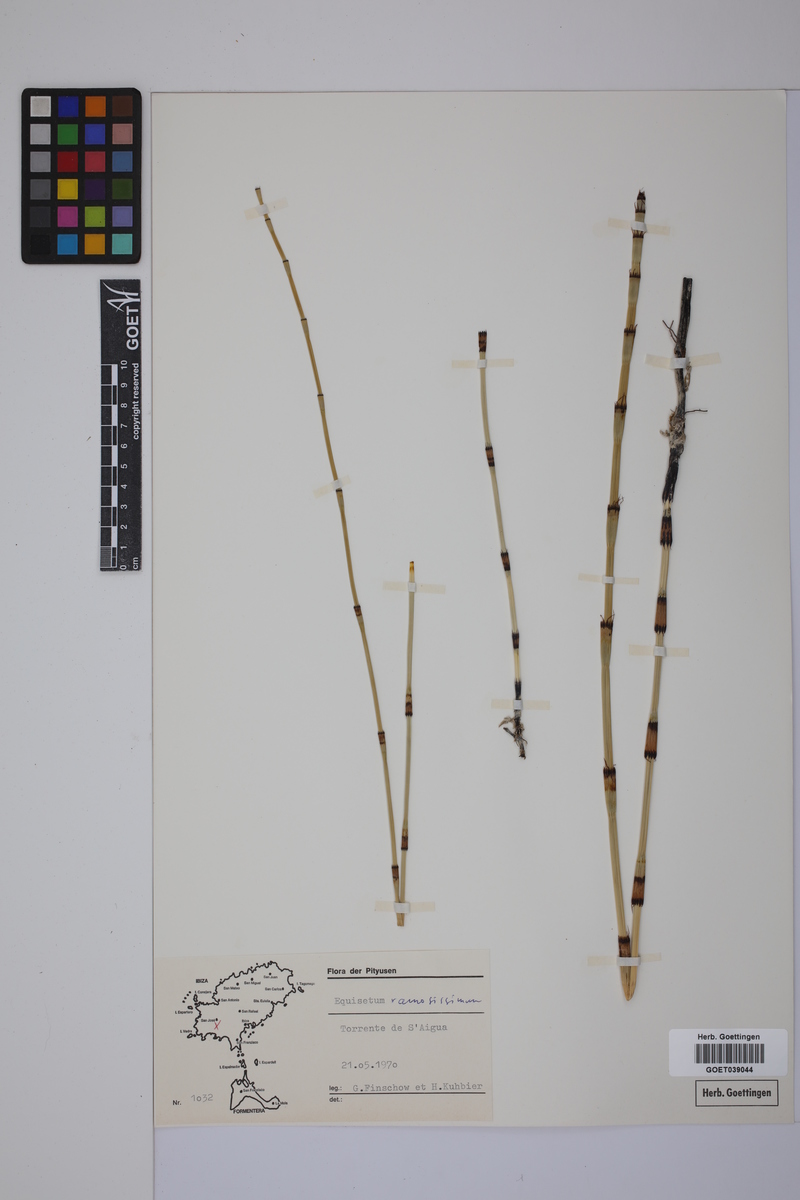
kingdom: Plantae
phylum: Tracheophyta
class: Polypodiopsida
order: Equisetales
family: Equisetaceae
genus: Equisetum
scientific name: Equisetum giganteum
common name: Giant horsetail
